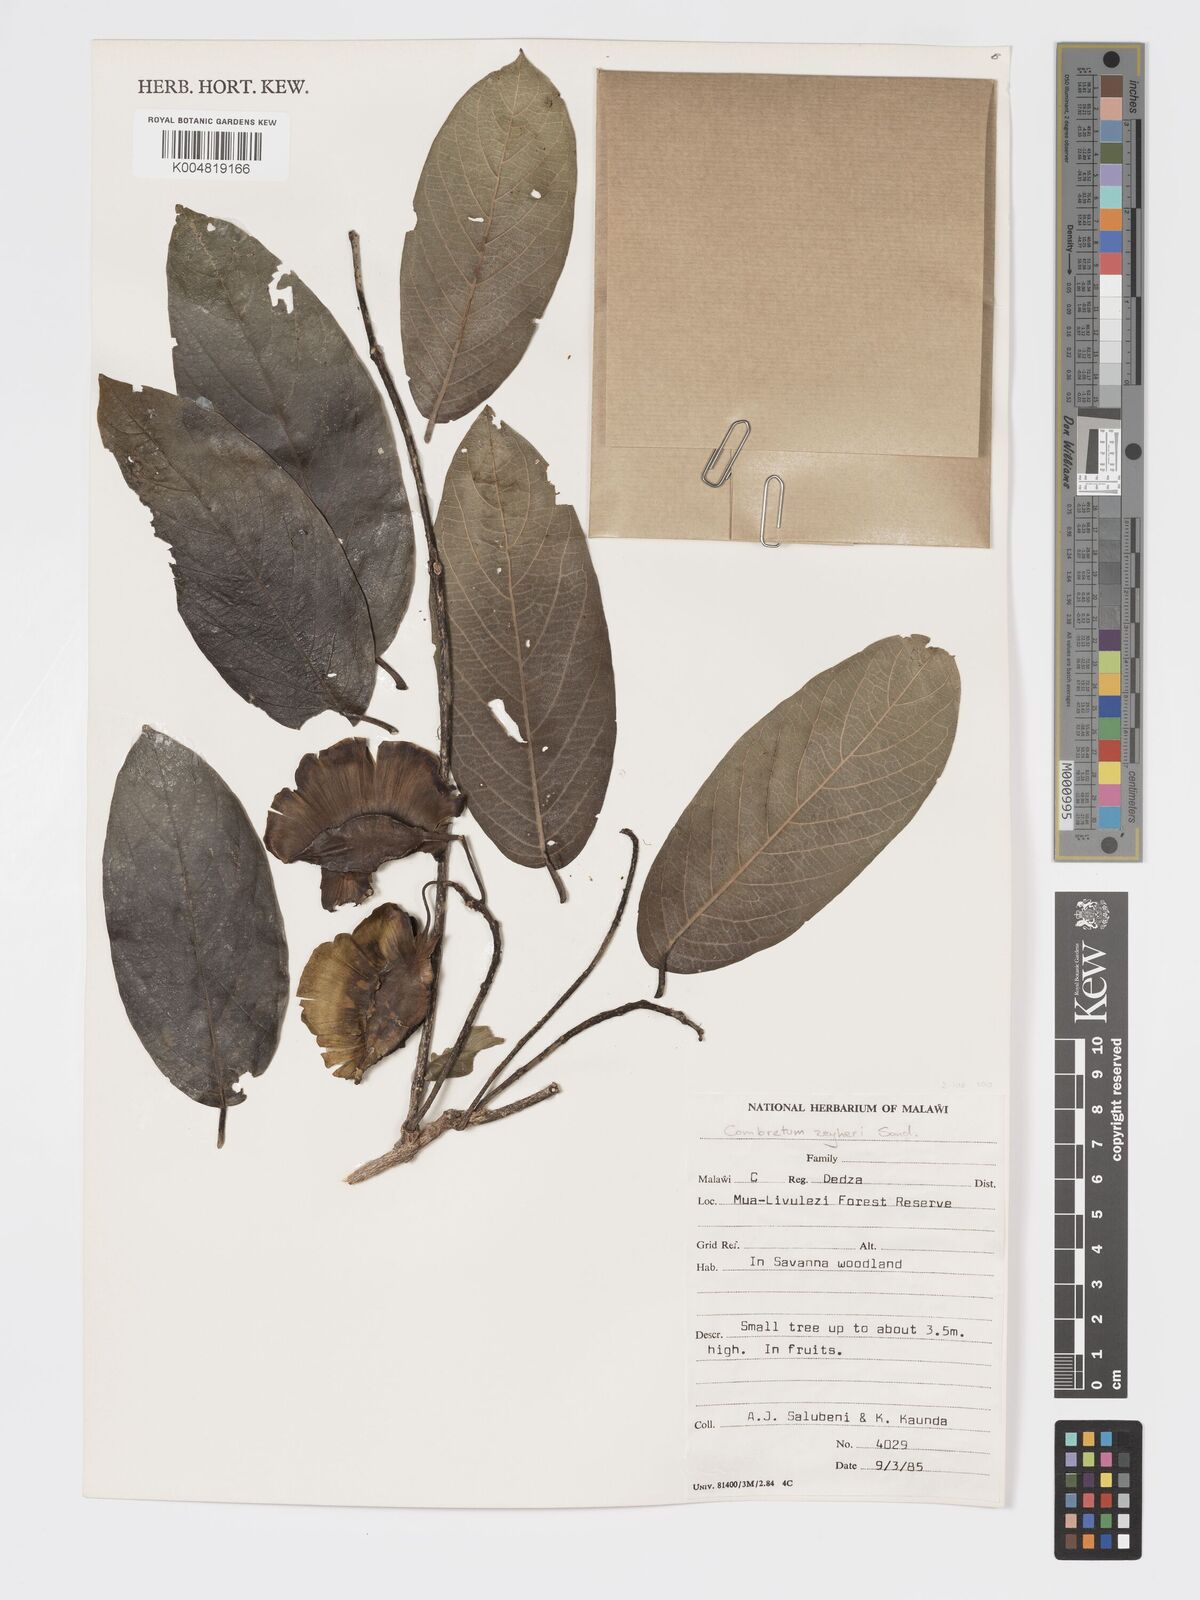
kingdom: Plantae
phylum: Tracheophyta
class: Magnoliopsida
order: Myrtales
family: Combretaceae
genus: Combretum
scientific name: Combretum zeyheri
